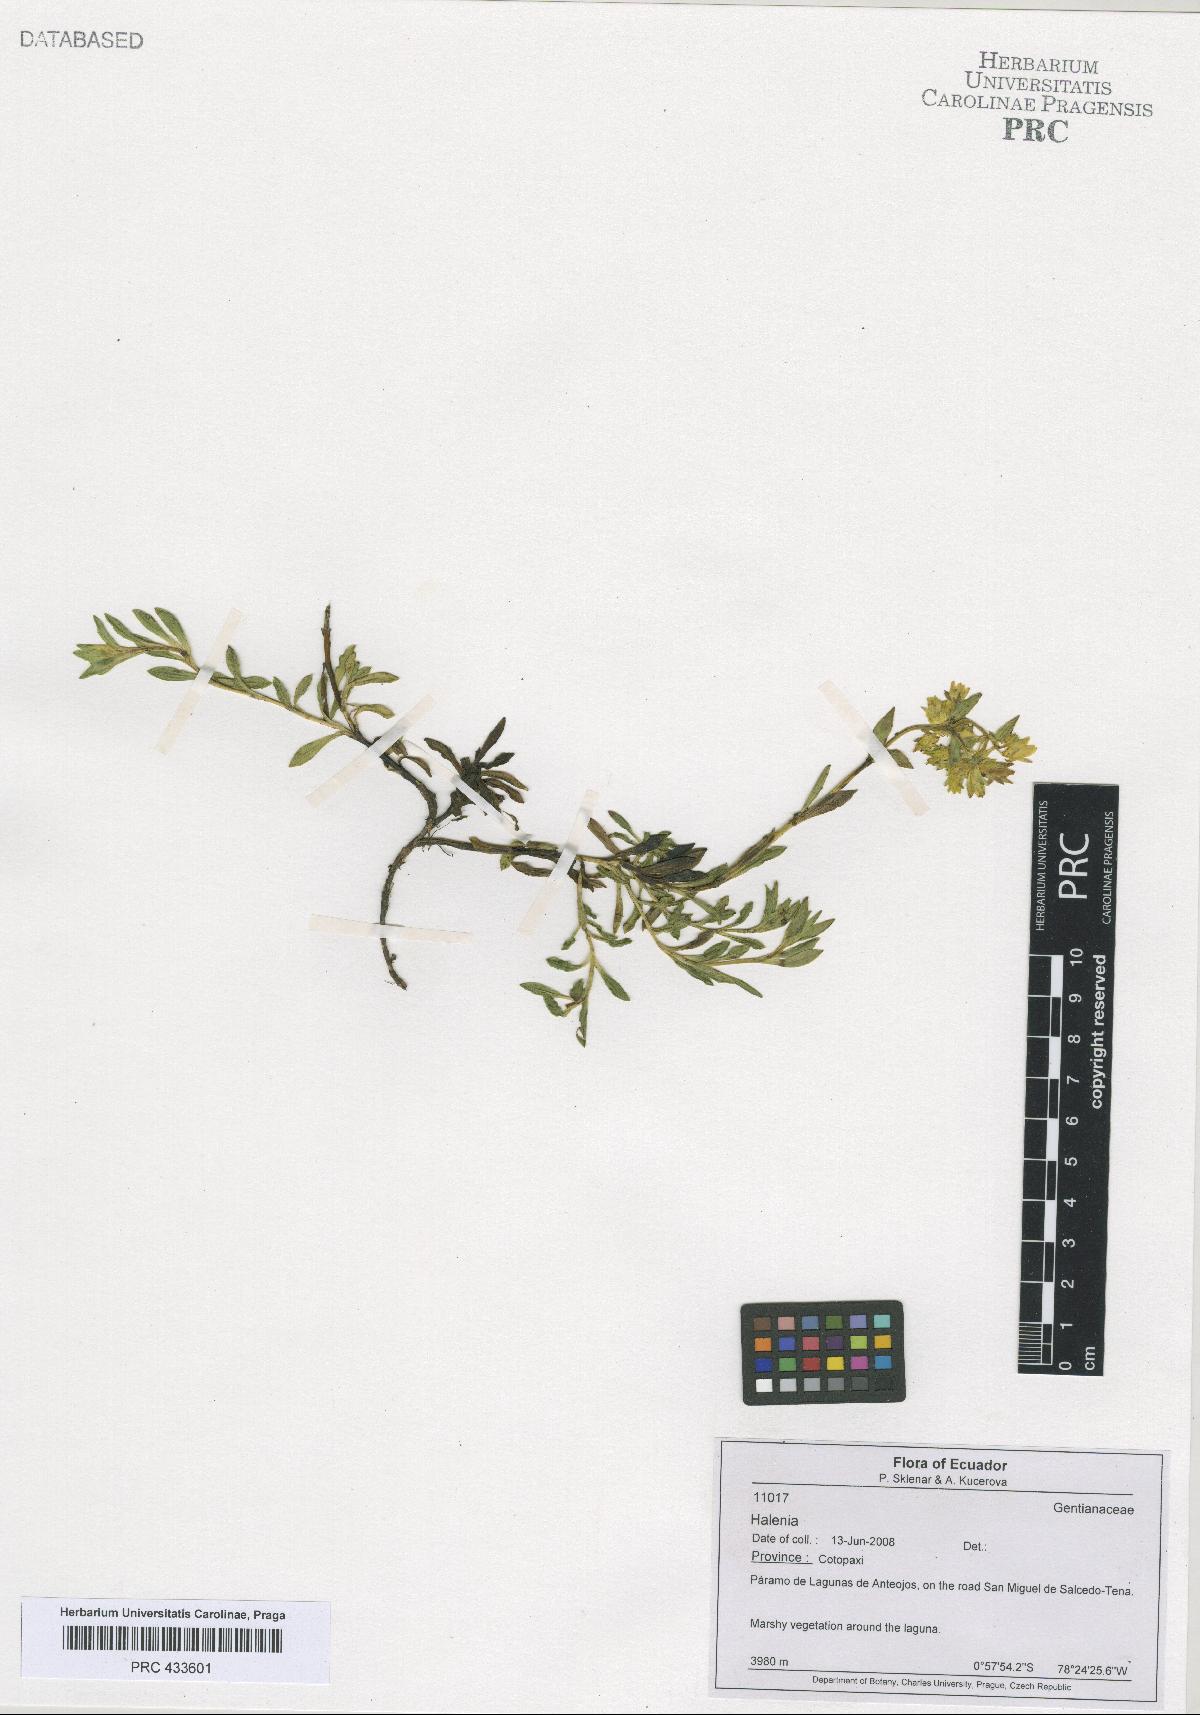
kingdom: Plantae
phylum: Tracheophyta
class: Magnoliopsida
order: Gentianales
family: Gentianaceae
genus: Halenia
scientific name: Halenia
